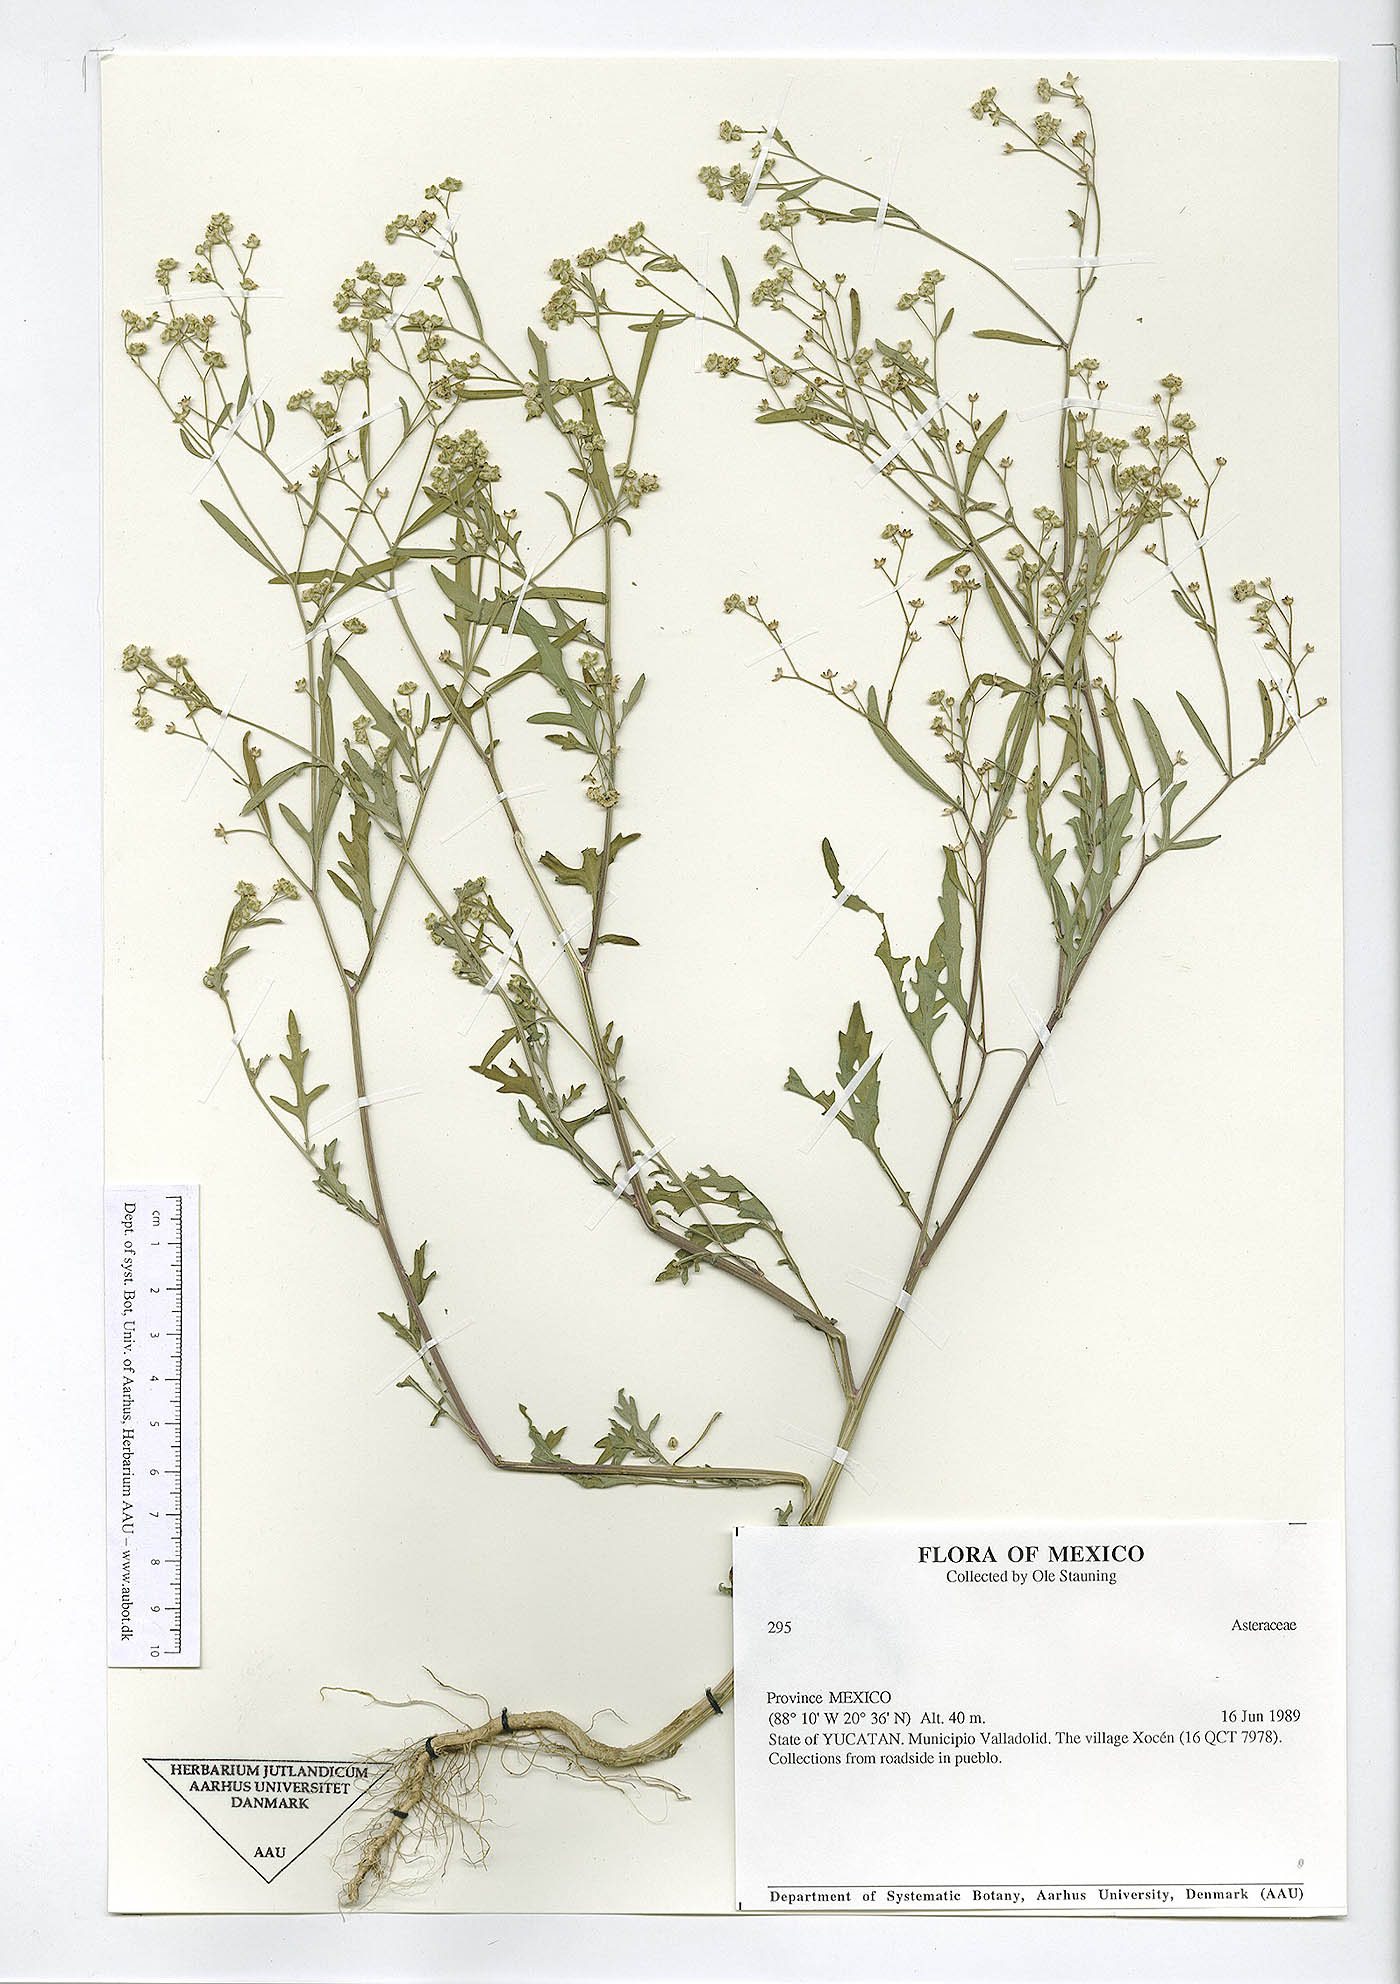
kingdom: Plantae
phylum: Tracheophyta
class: Magnoliopsida
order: Asterales
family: Asteraceae
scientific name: Asteraceae
